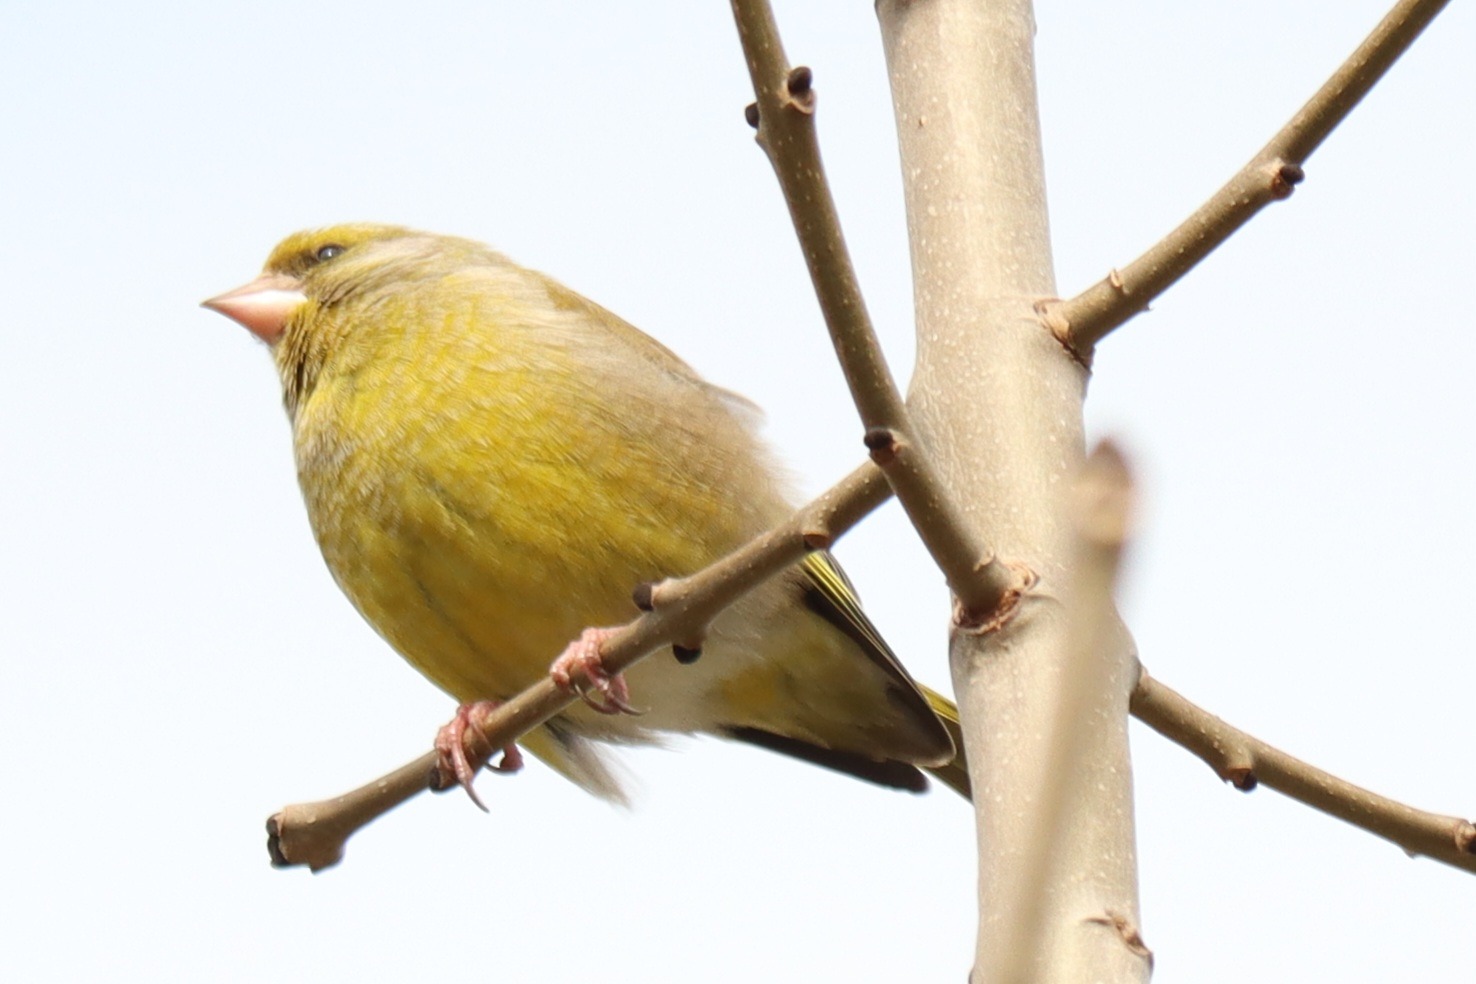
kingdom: Plantae
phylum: Tracheophyta
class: Liliopsida
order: Poales
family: Poaceae
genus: Chloris
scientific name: Chloris chloris
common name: Grønirisk
